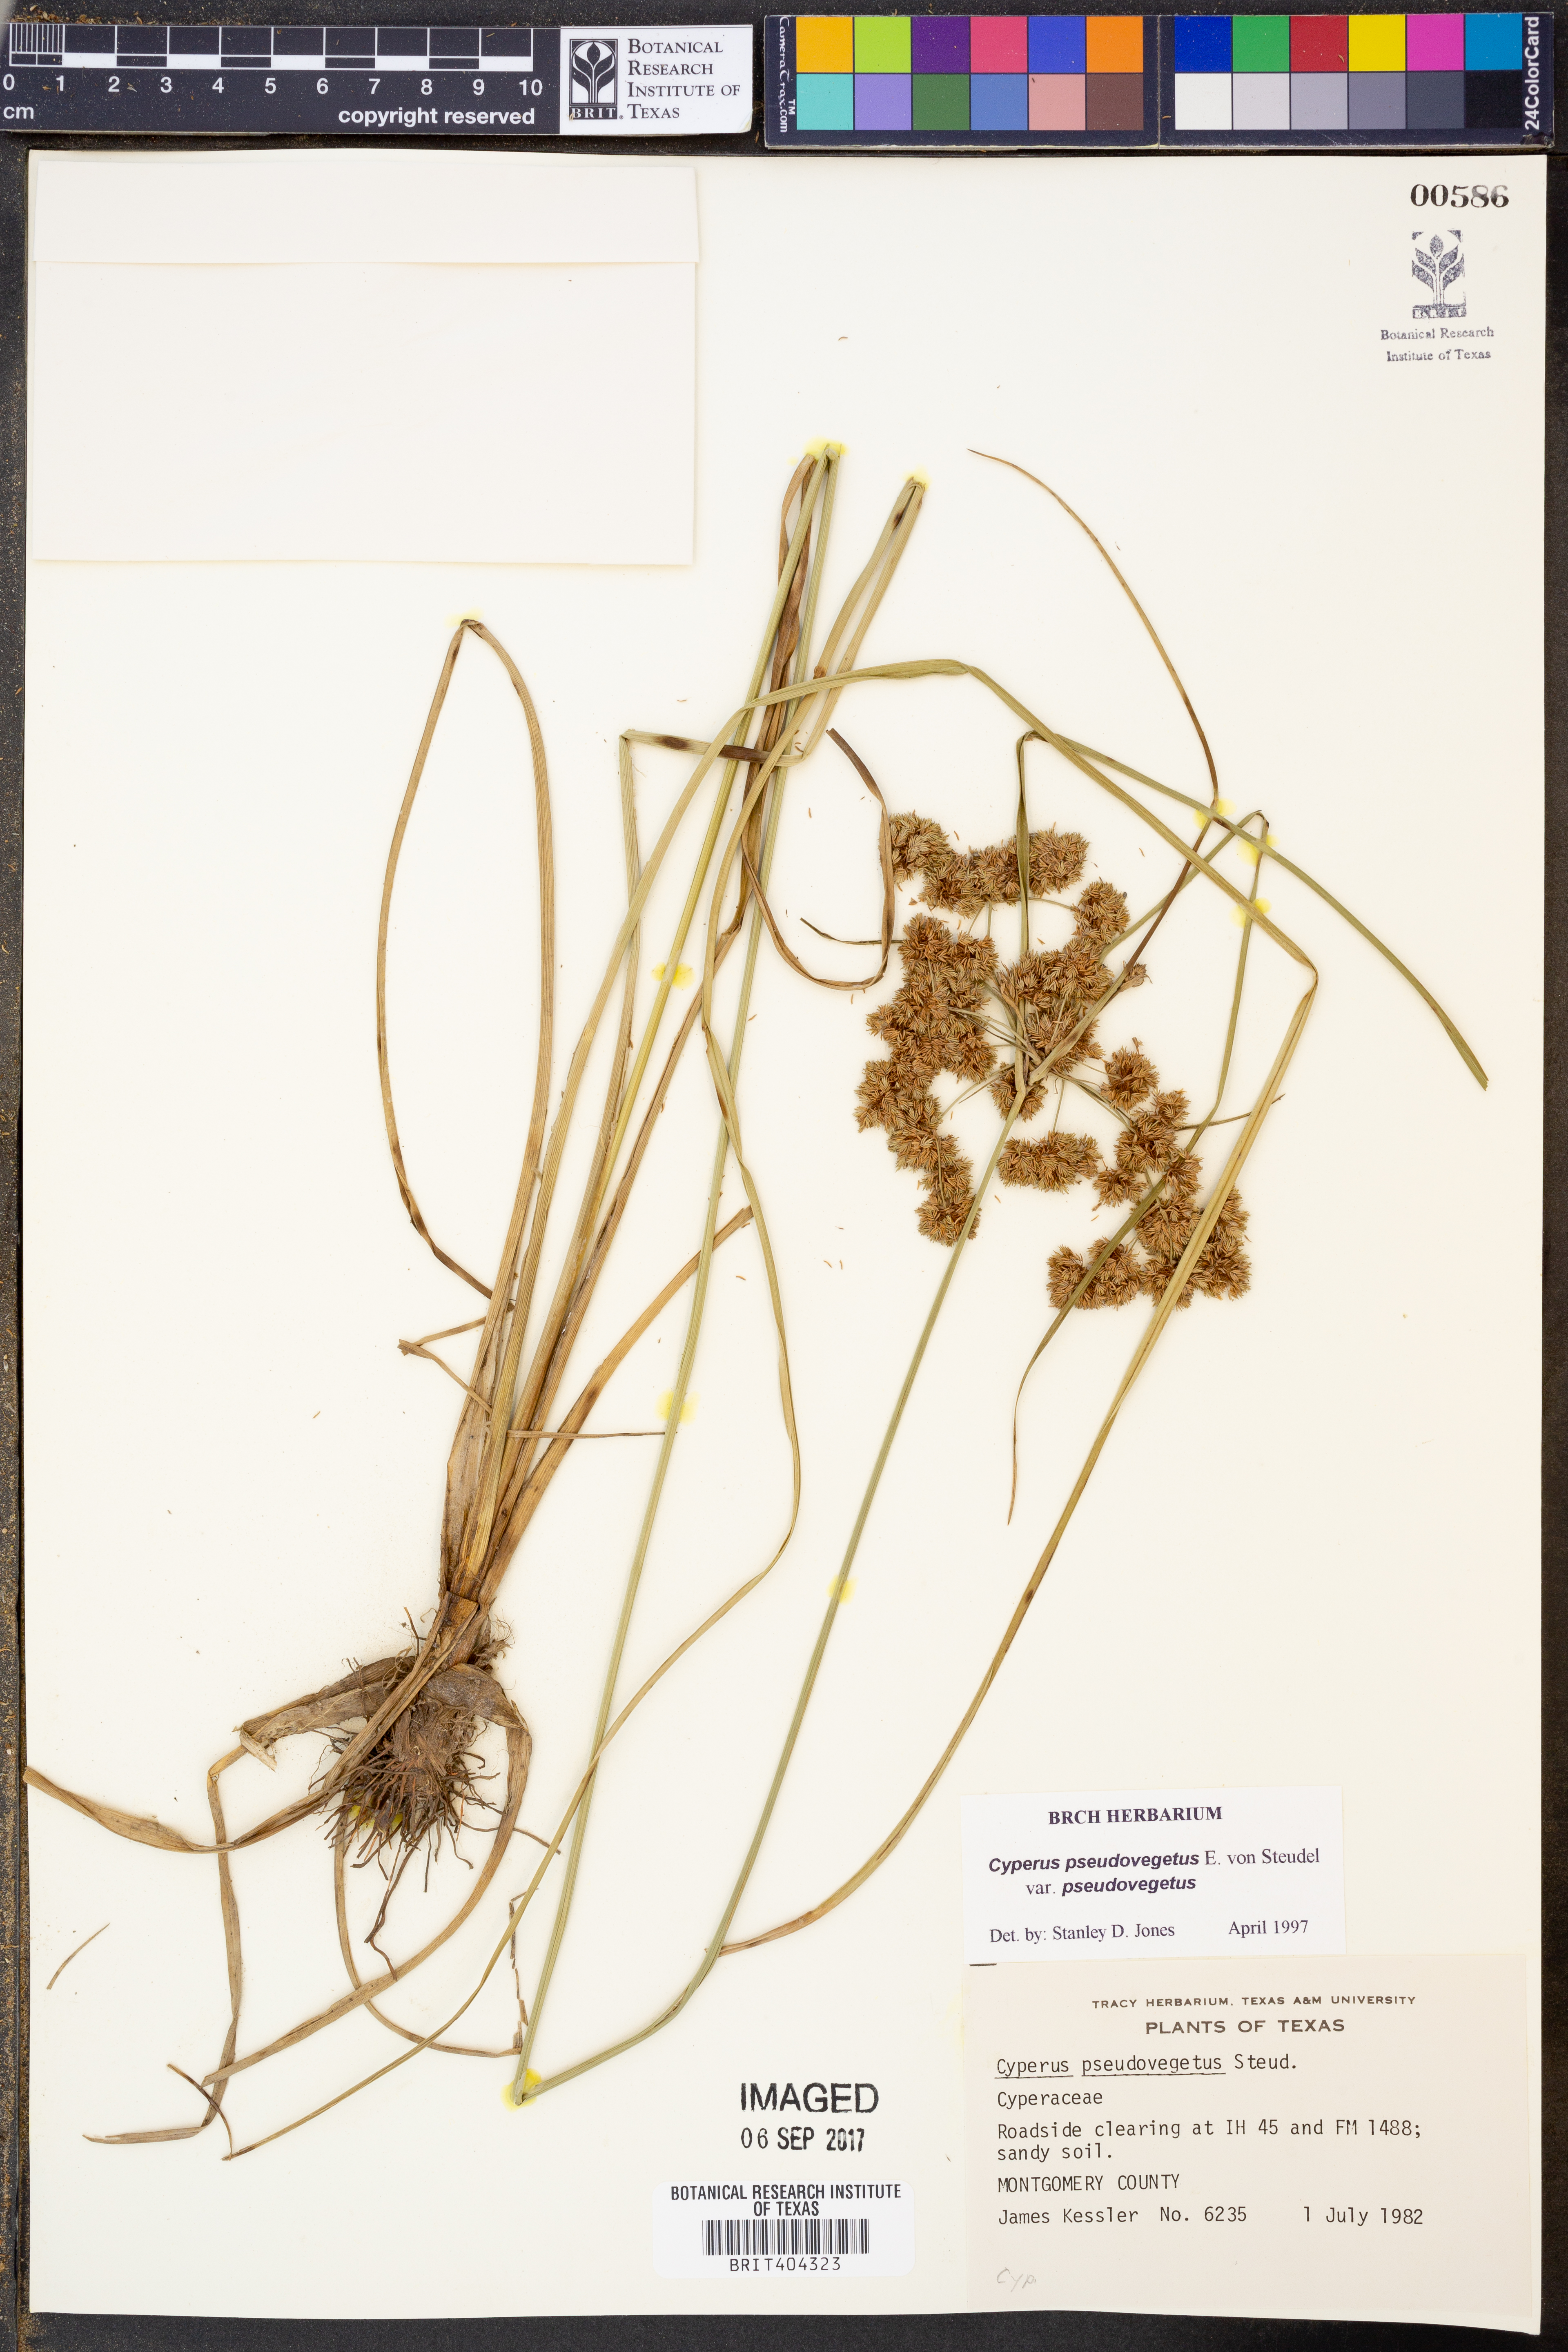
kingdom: Plantae
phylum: Tracheophyta
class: Liliopsida
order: Poales
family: Cyperaceae
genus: Cyperus
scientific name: Cyperus pseudovegetus
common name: Marsh flat sedge
